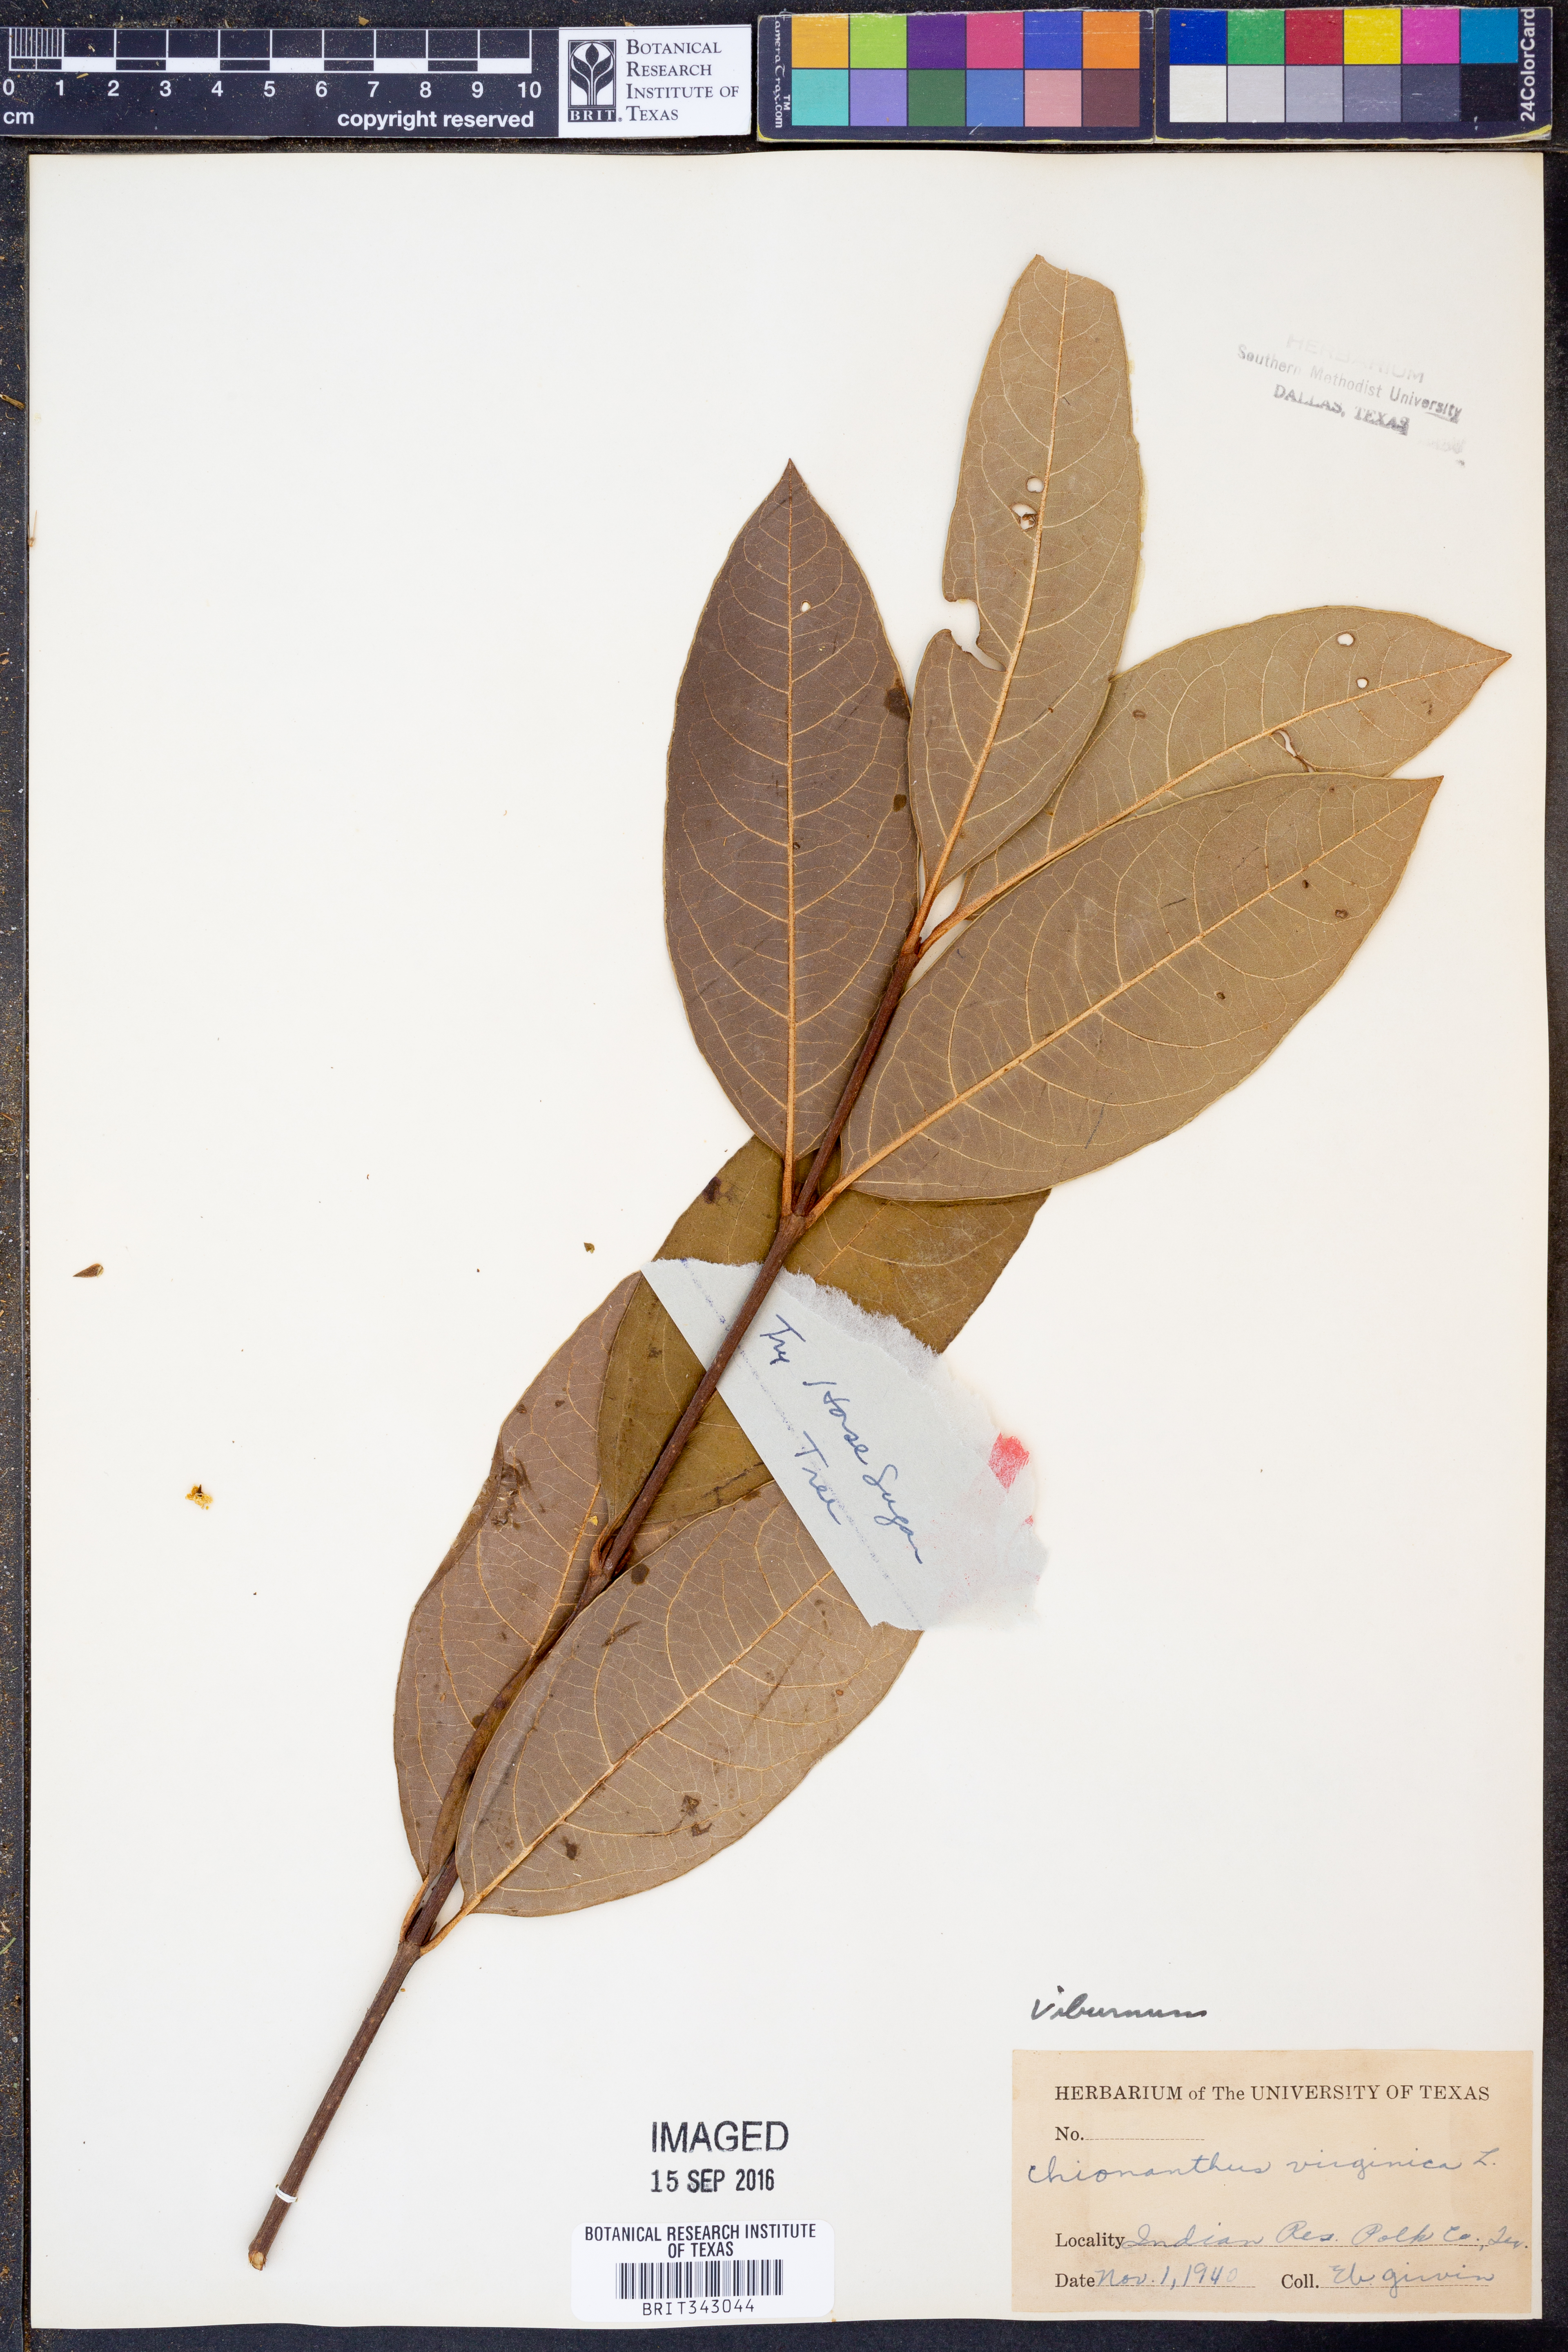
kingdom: Plantae
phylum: Tracheophyta
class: Magnoliopsida
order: Dipsacales
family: Viburnaceae
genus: Viburnum
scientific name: Viburnum
